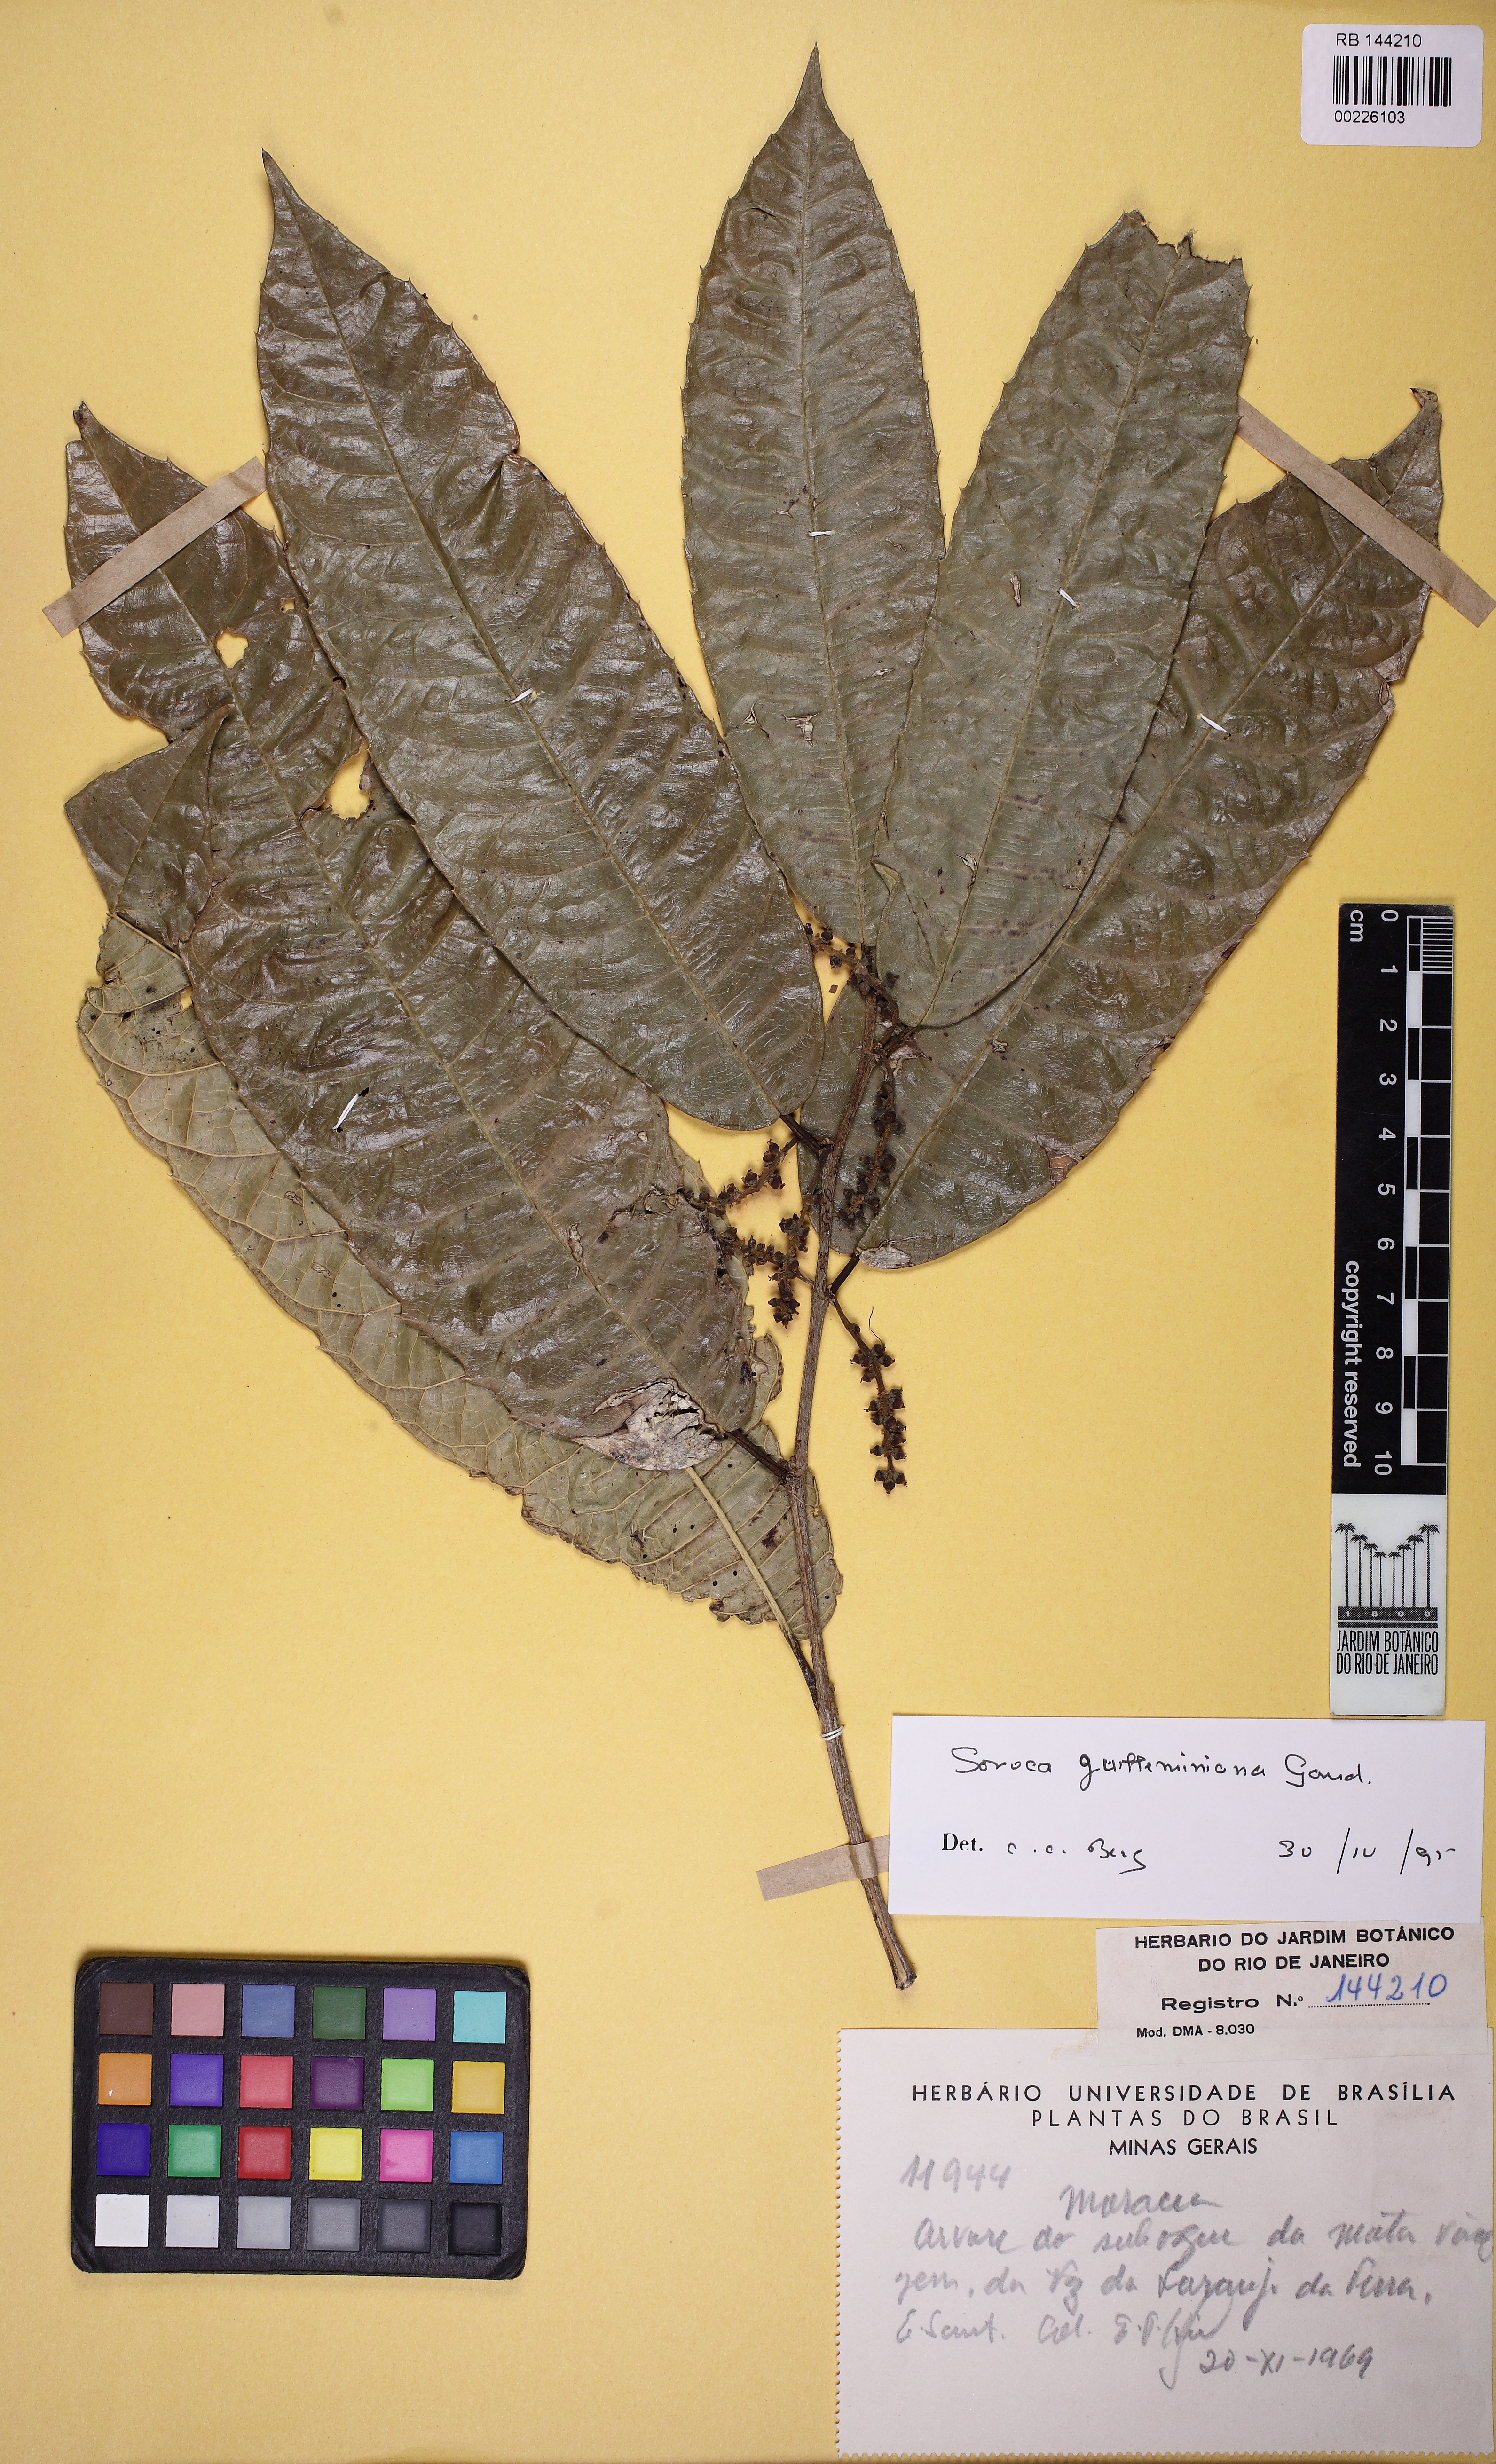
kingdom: Plantae
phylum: Tracheophyta
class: Magnoliopsida
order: Rosales
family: Moraceae
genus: Sorocea
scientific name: Sorocea guilleminiana
